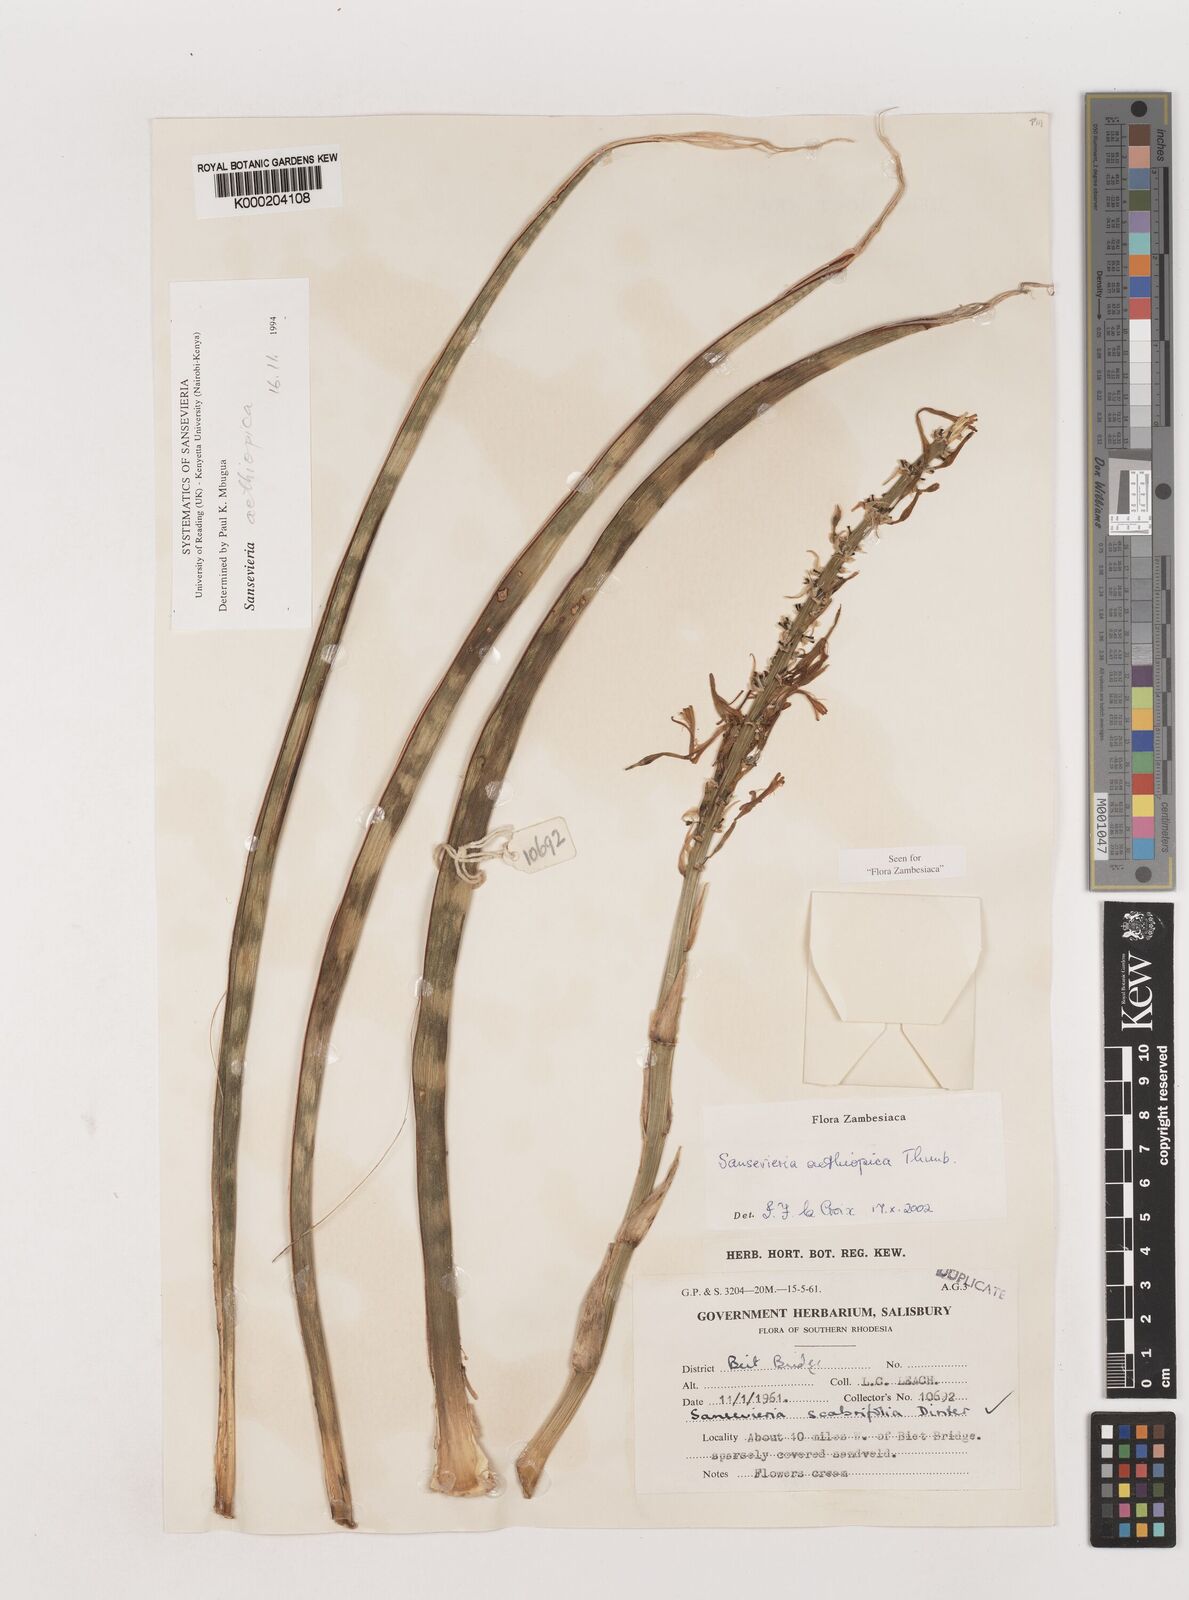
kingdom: Plantae
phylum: Tracheophyta
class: Liliopsida
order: Asparagales
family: Asparagaceae
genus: Dracaena
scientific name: Dracaena aethiopica
